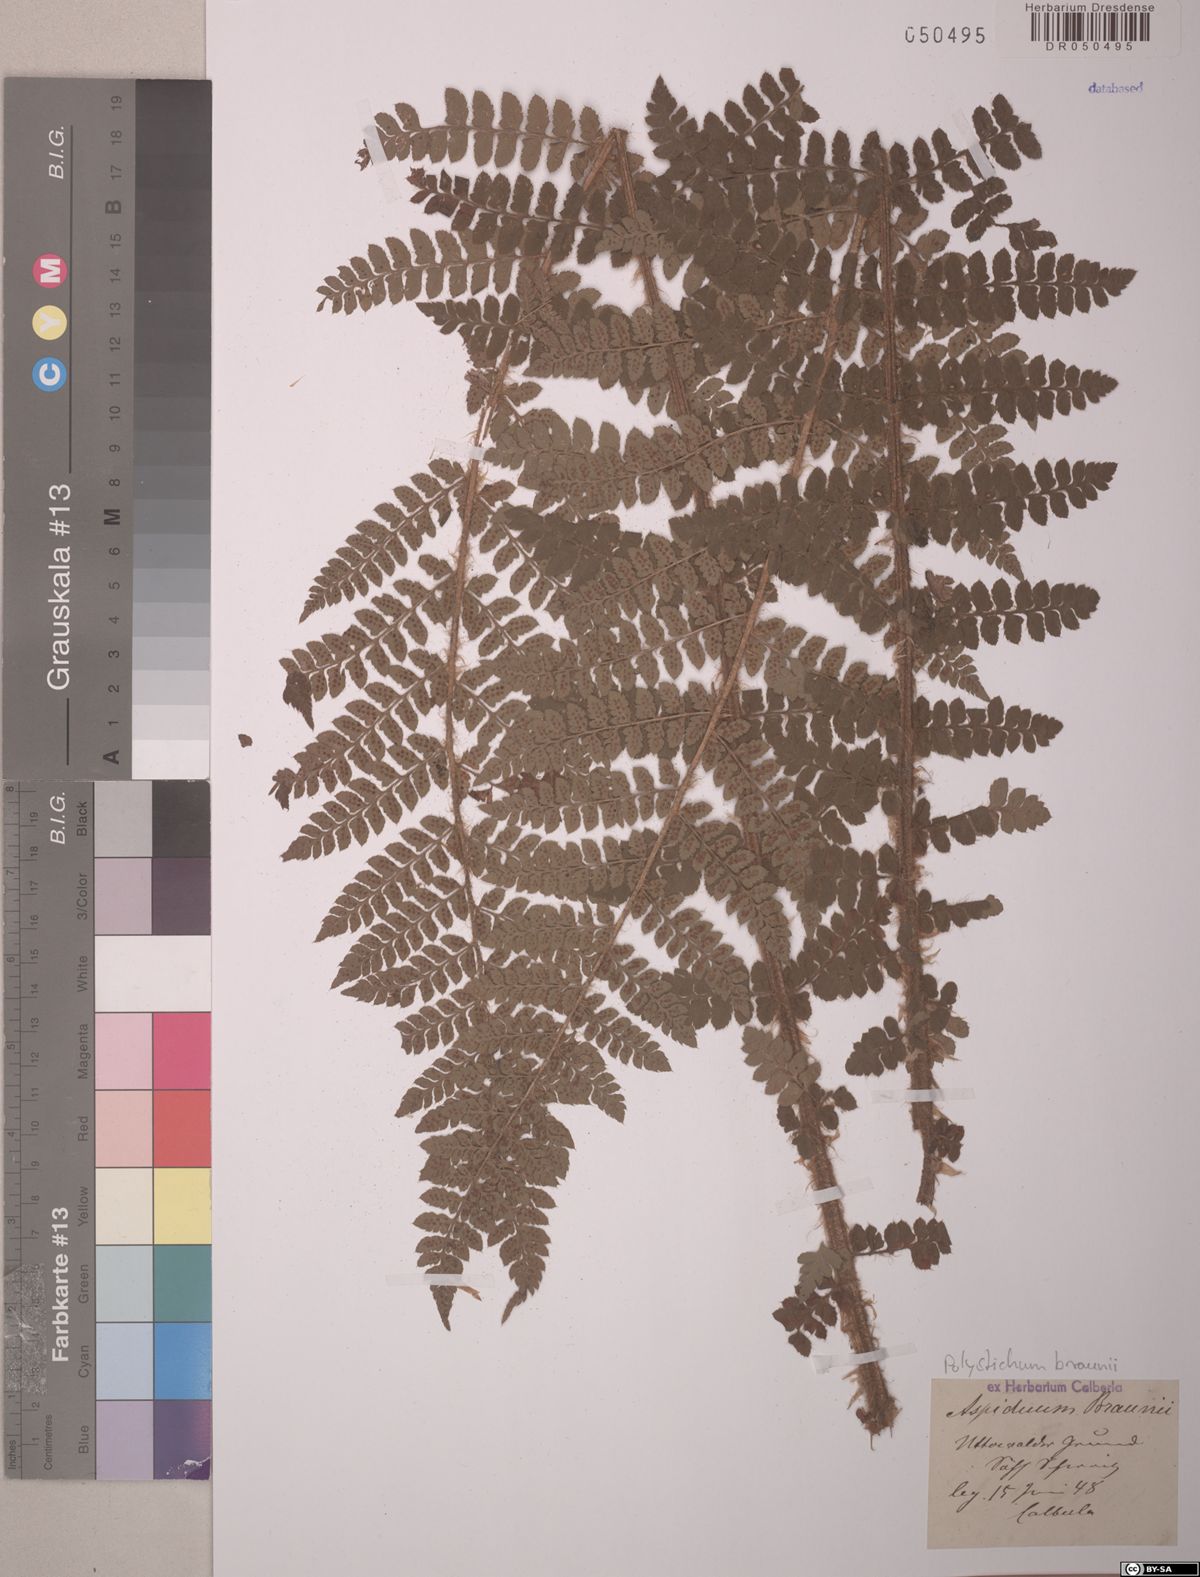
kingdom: Plantae
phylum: Tracheophyta
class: Polypodiopsida
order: Polypodiales
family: Dryopteridaceae
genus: Polystichum
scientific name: Polystichum braunii
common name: Braun's holly fern
